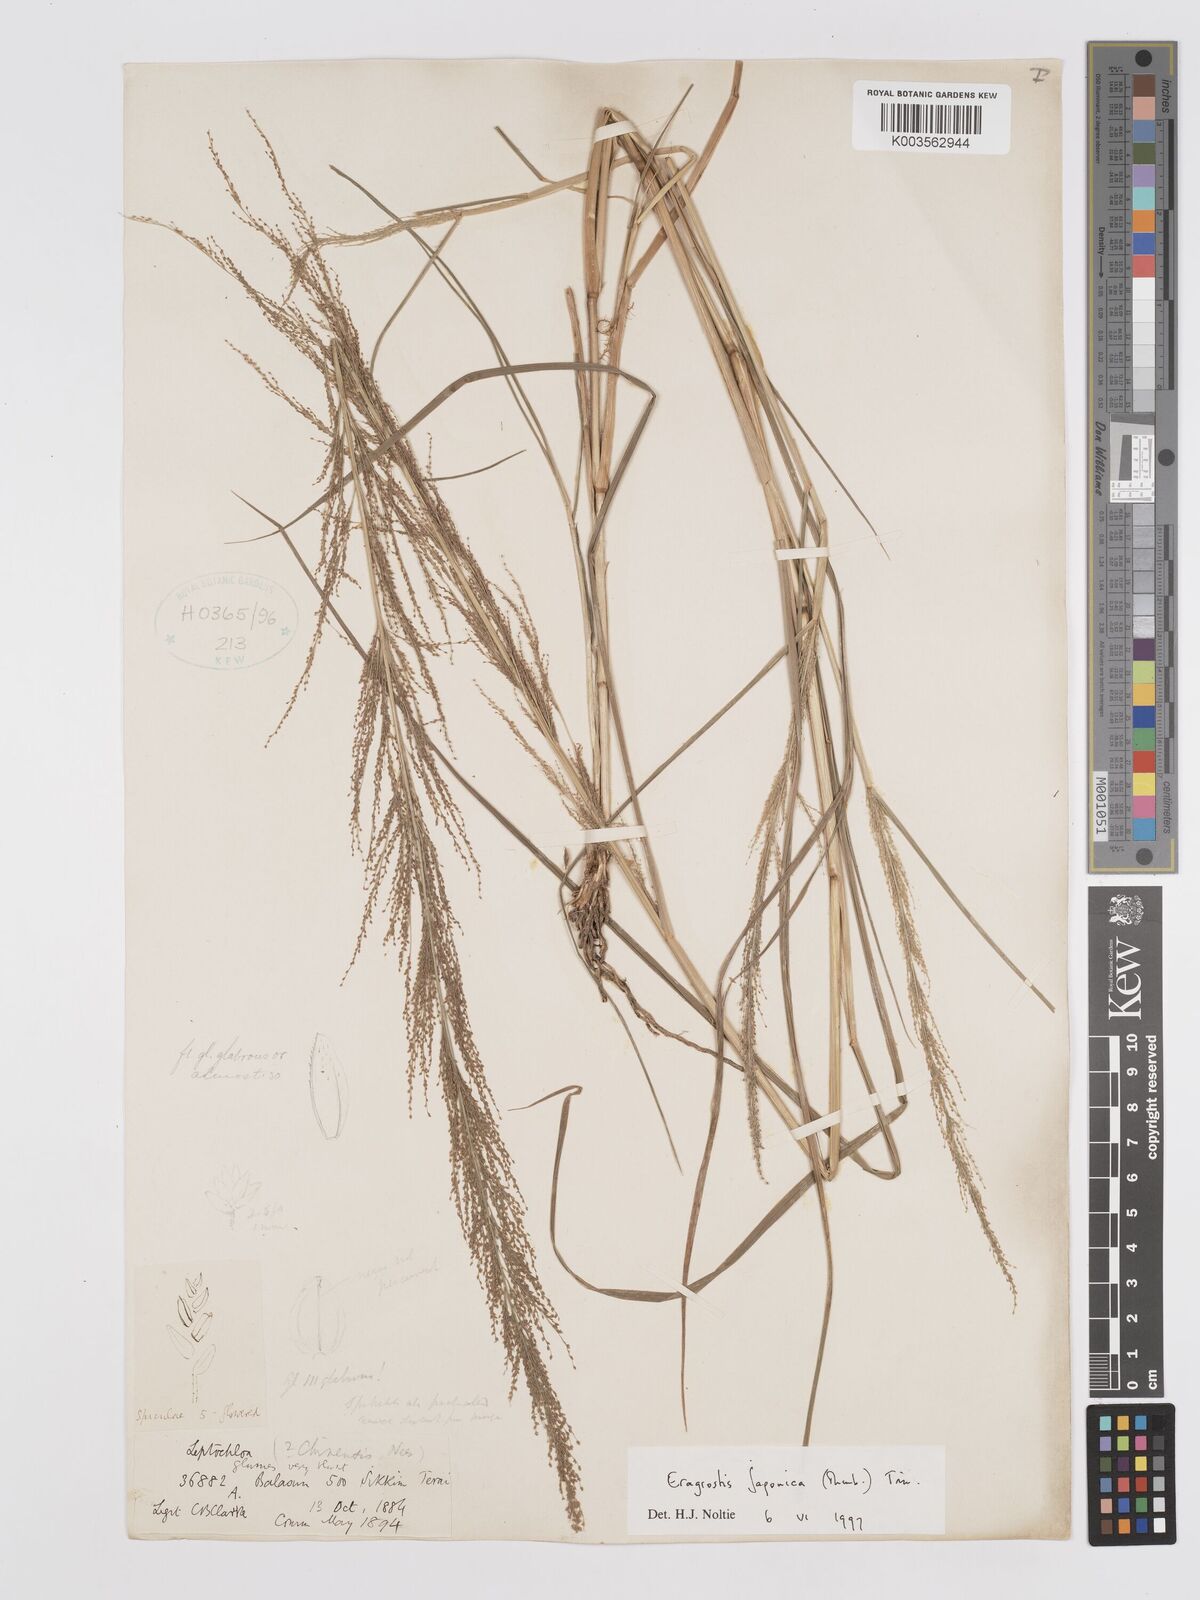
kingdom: Plantae
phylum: Tracheophyta
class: Liliopsida
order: Poales
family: Poaceae
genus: Eragrostis
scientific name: Eragrostis japonica
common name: Pond lovegrass
